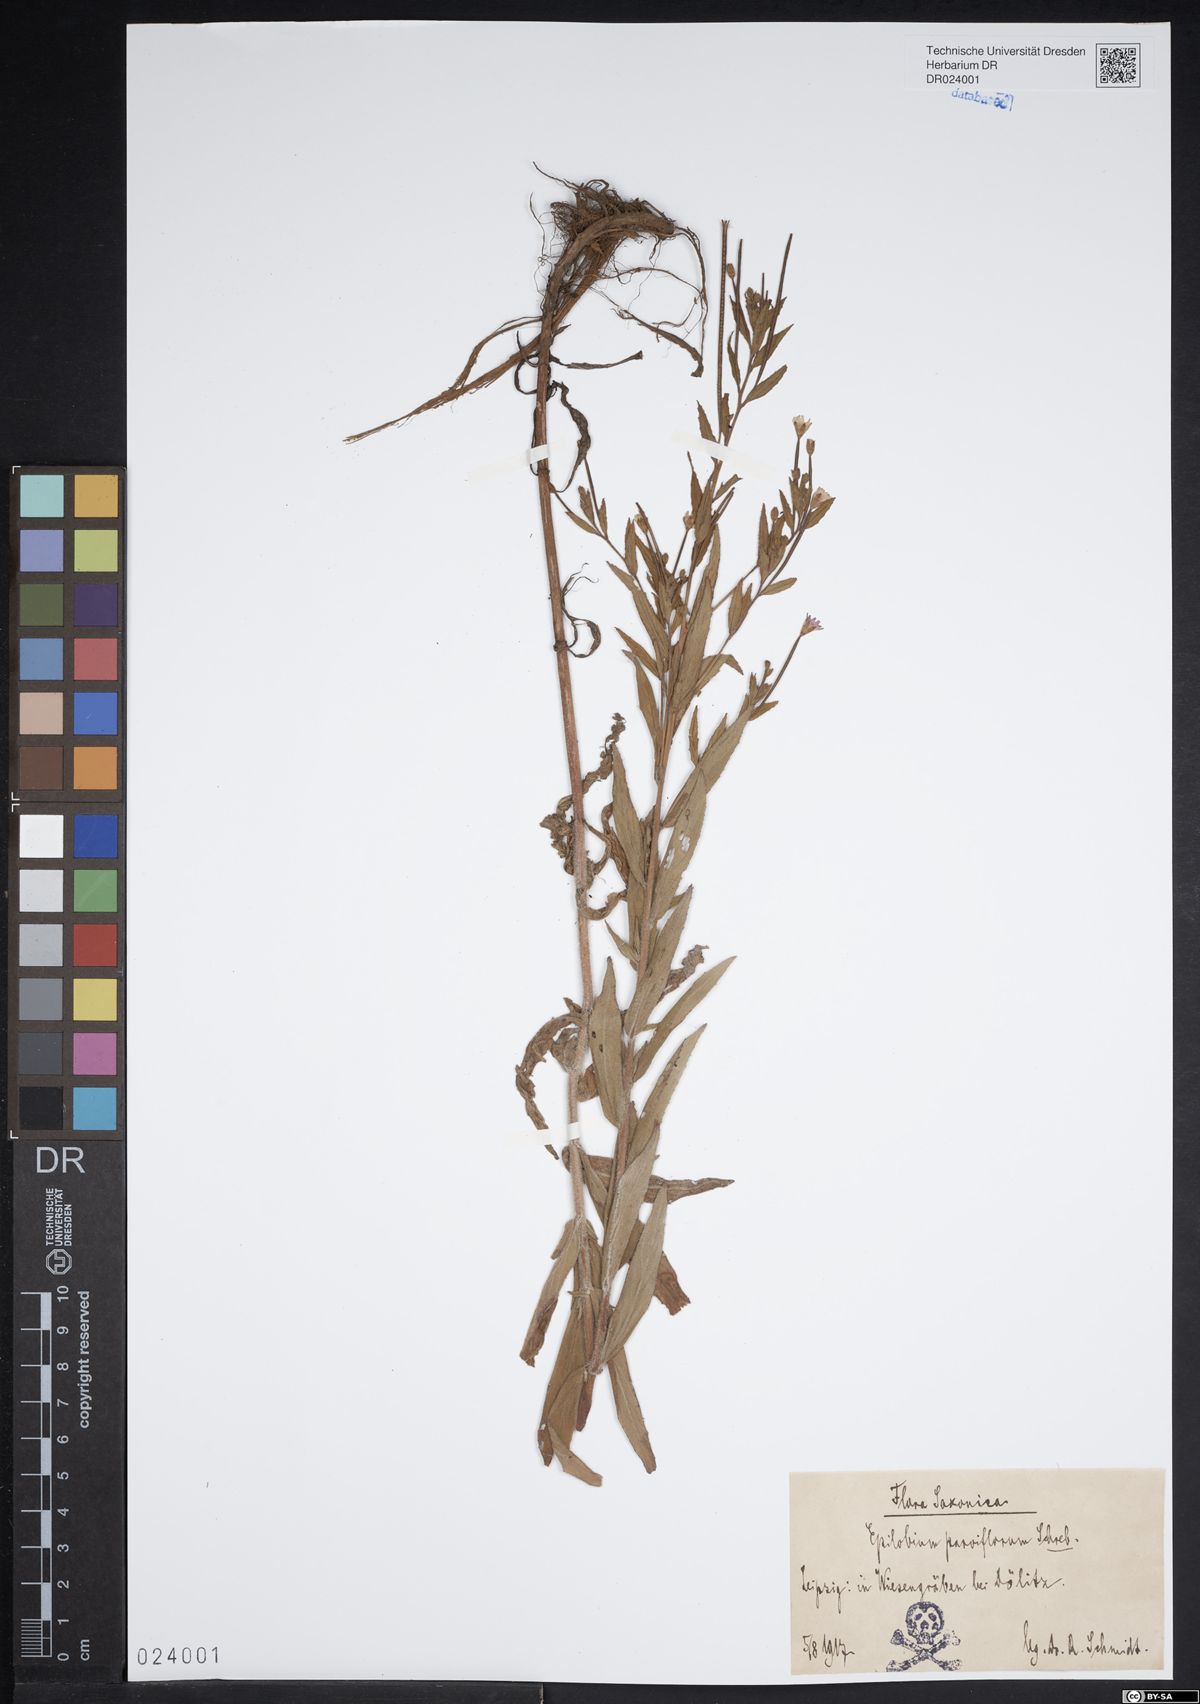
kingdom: Plantae
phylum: Tracheophyta
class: Magnoliopsida
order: Myrtales
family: Onagraceae
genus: Epilobium
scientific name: Epilobium parviflorum
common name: Hoary willowherb
